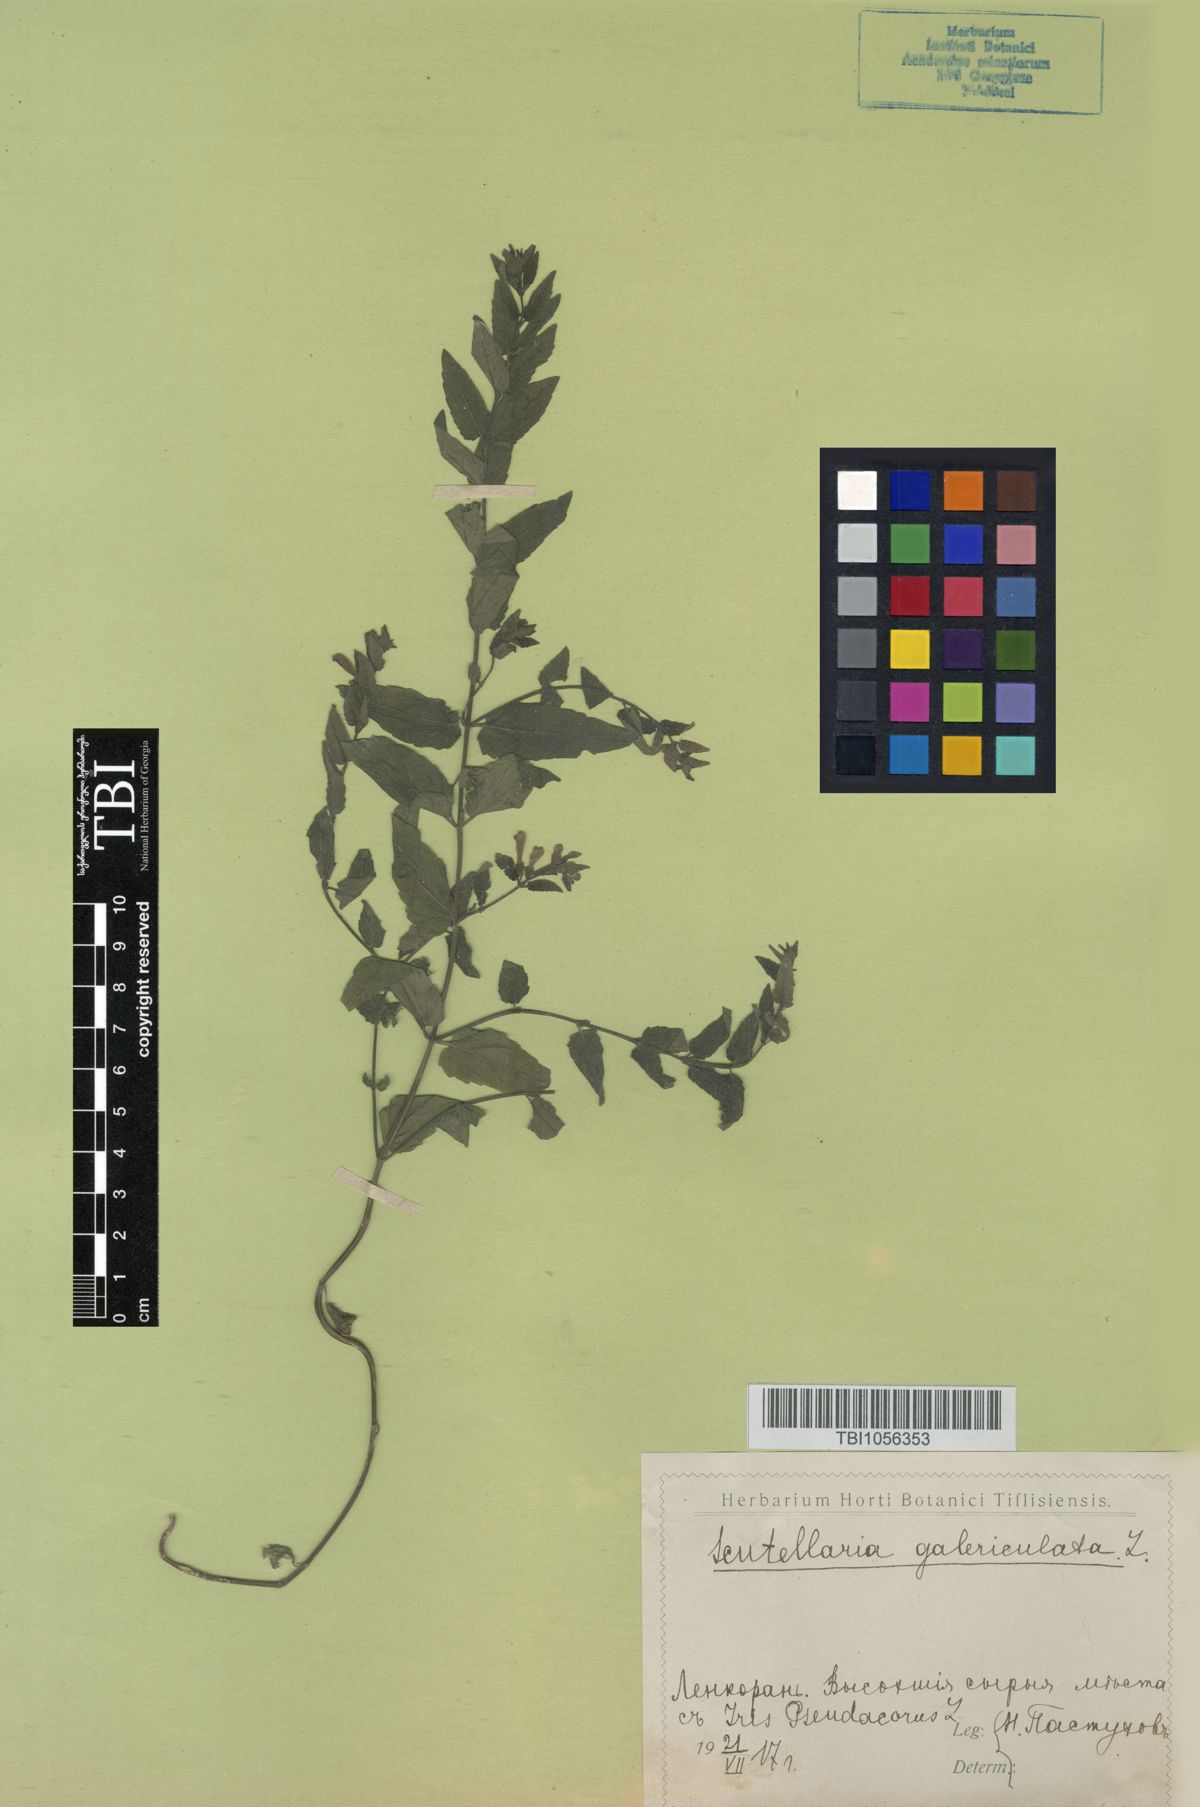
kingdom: Plantae
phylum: Tracheophyta
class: Magnoliopsida
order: Lamiales
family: Lamiaceae
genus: Scutellaria
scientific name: Scutellaria galericulata
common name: Skullcap
